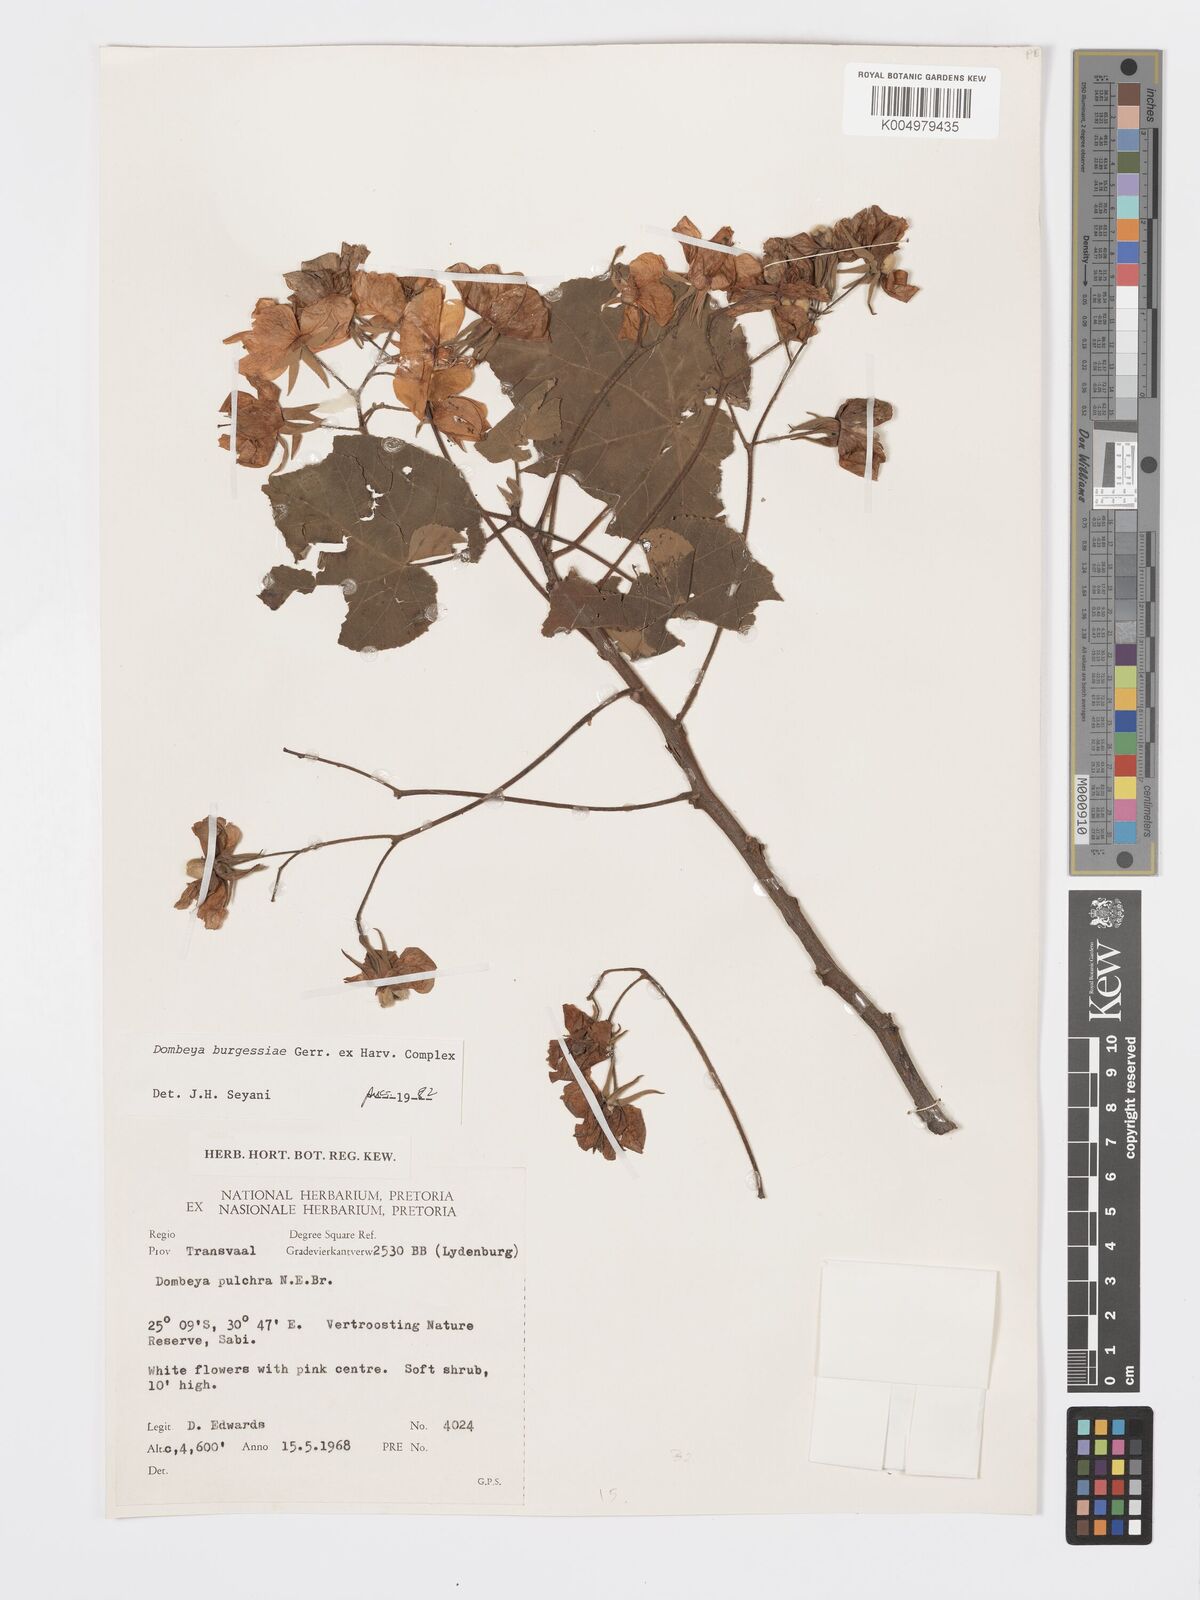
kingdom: Plantae
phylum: Tracheophyta
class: Magnoliopsida
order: Malvales
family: Malvaceae
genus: Dombeya
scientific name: Dombeya burgessiae
